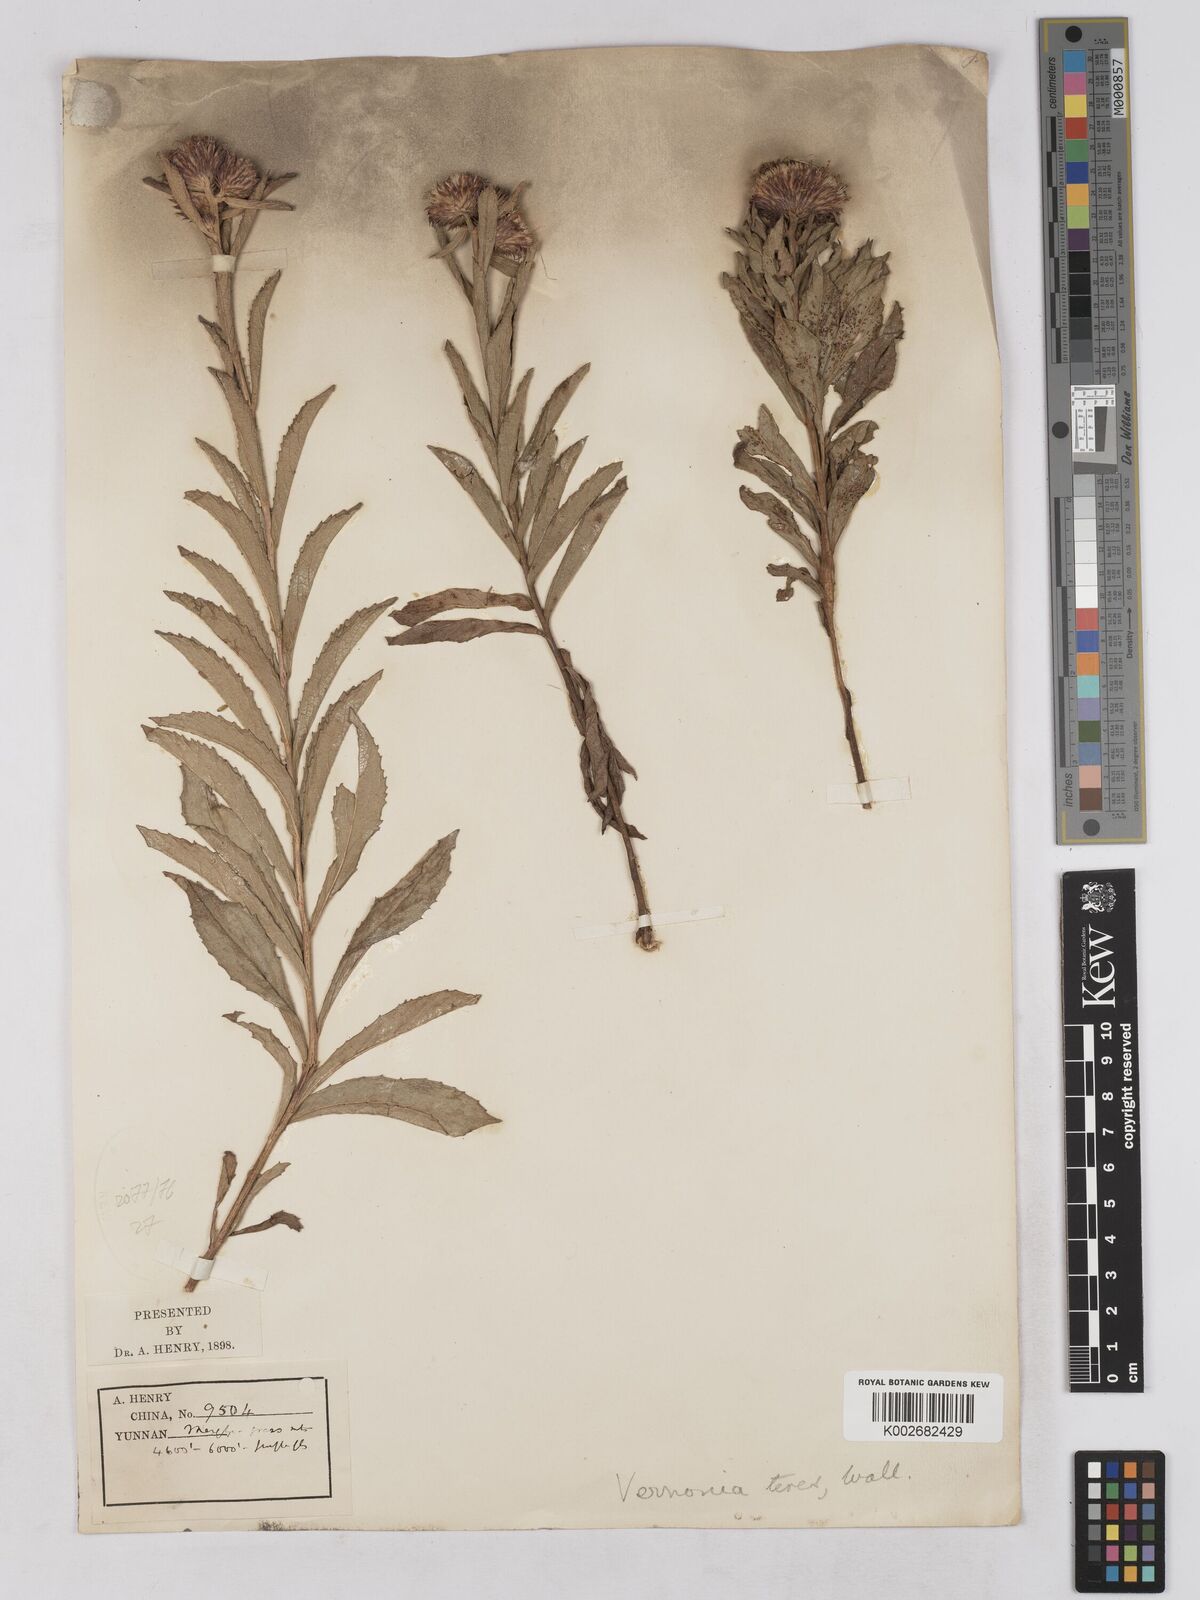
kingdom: Plantae
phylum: Tracheophyta
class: Magnoliopsida
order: Asterales
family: Asteraceae
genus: Acilepis
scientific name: Acilepis aspera
